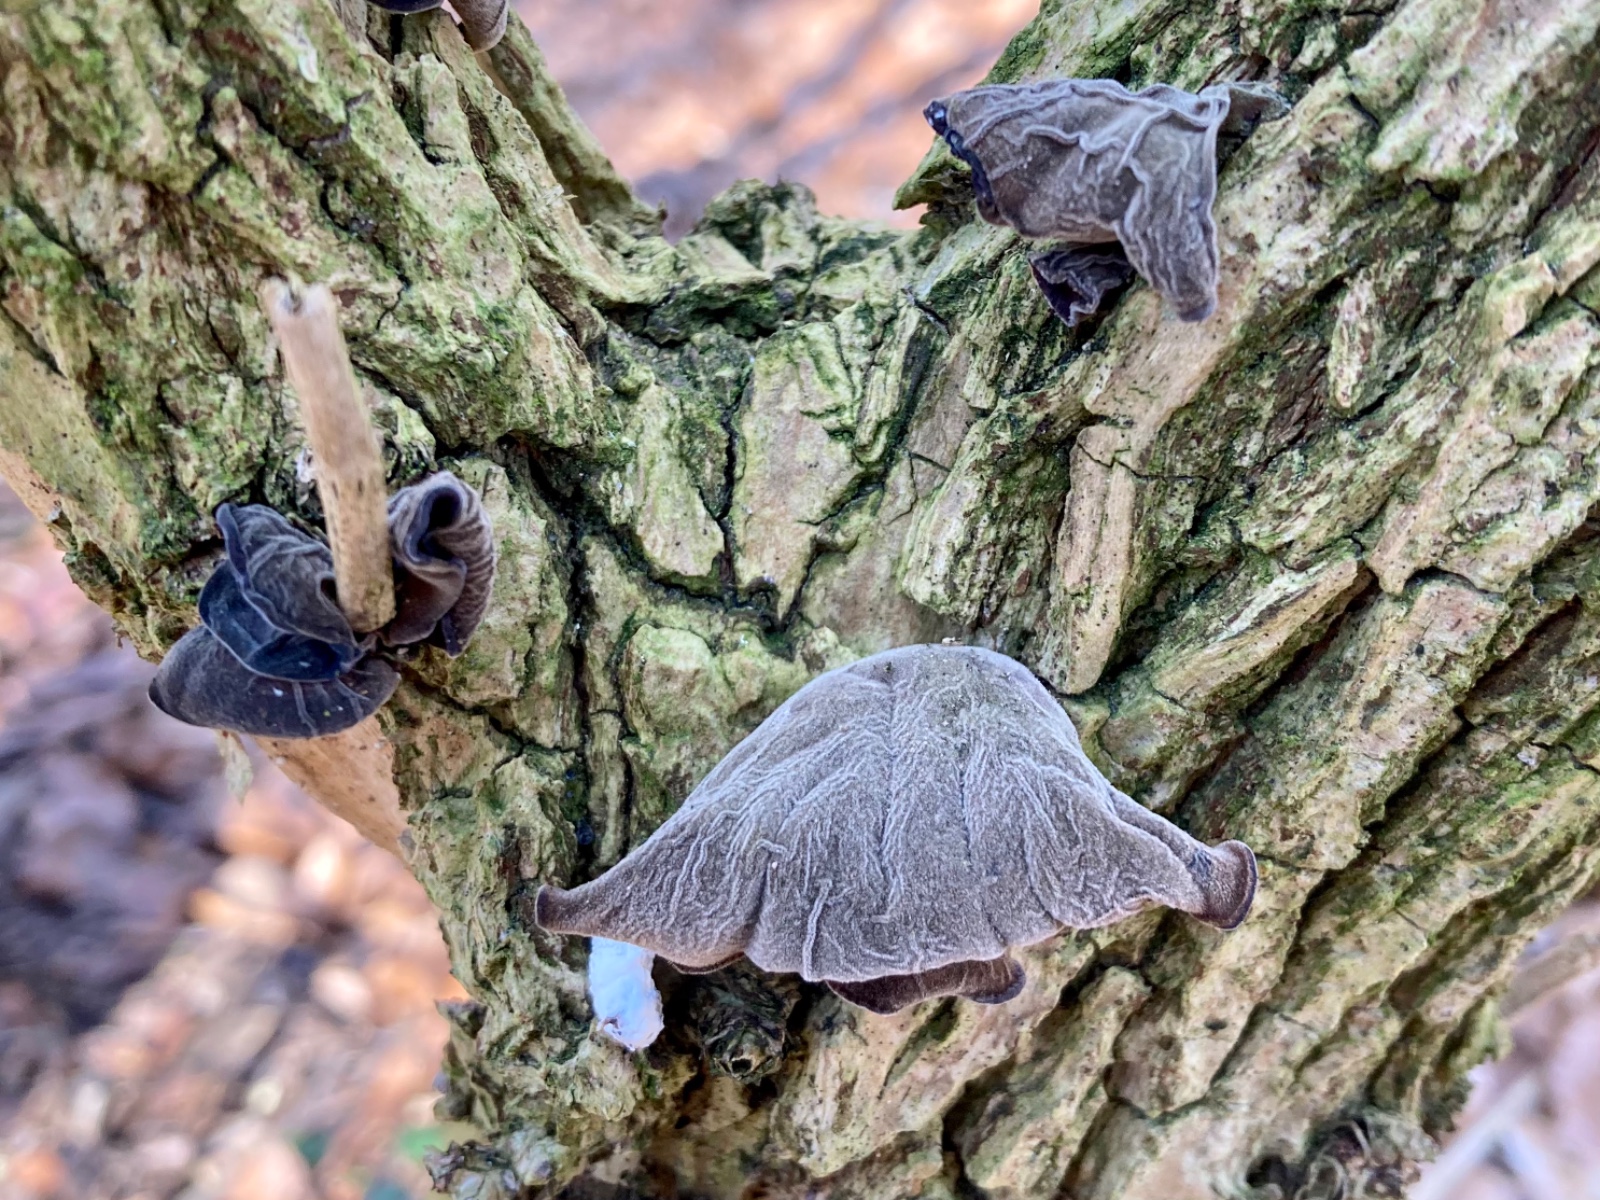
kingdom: Fungi
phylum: Basidiomycota
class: Agaricomycetes
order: Auriculariales
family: Auriculariaceae
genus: Auricularia
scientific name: Auricularia auricula-judae
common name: almindelig judasøre
